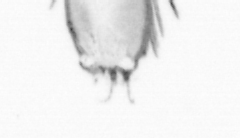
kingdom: Animalia
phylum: Arthropoda
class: Maxillopoda
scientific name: Maxillopoda
